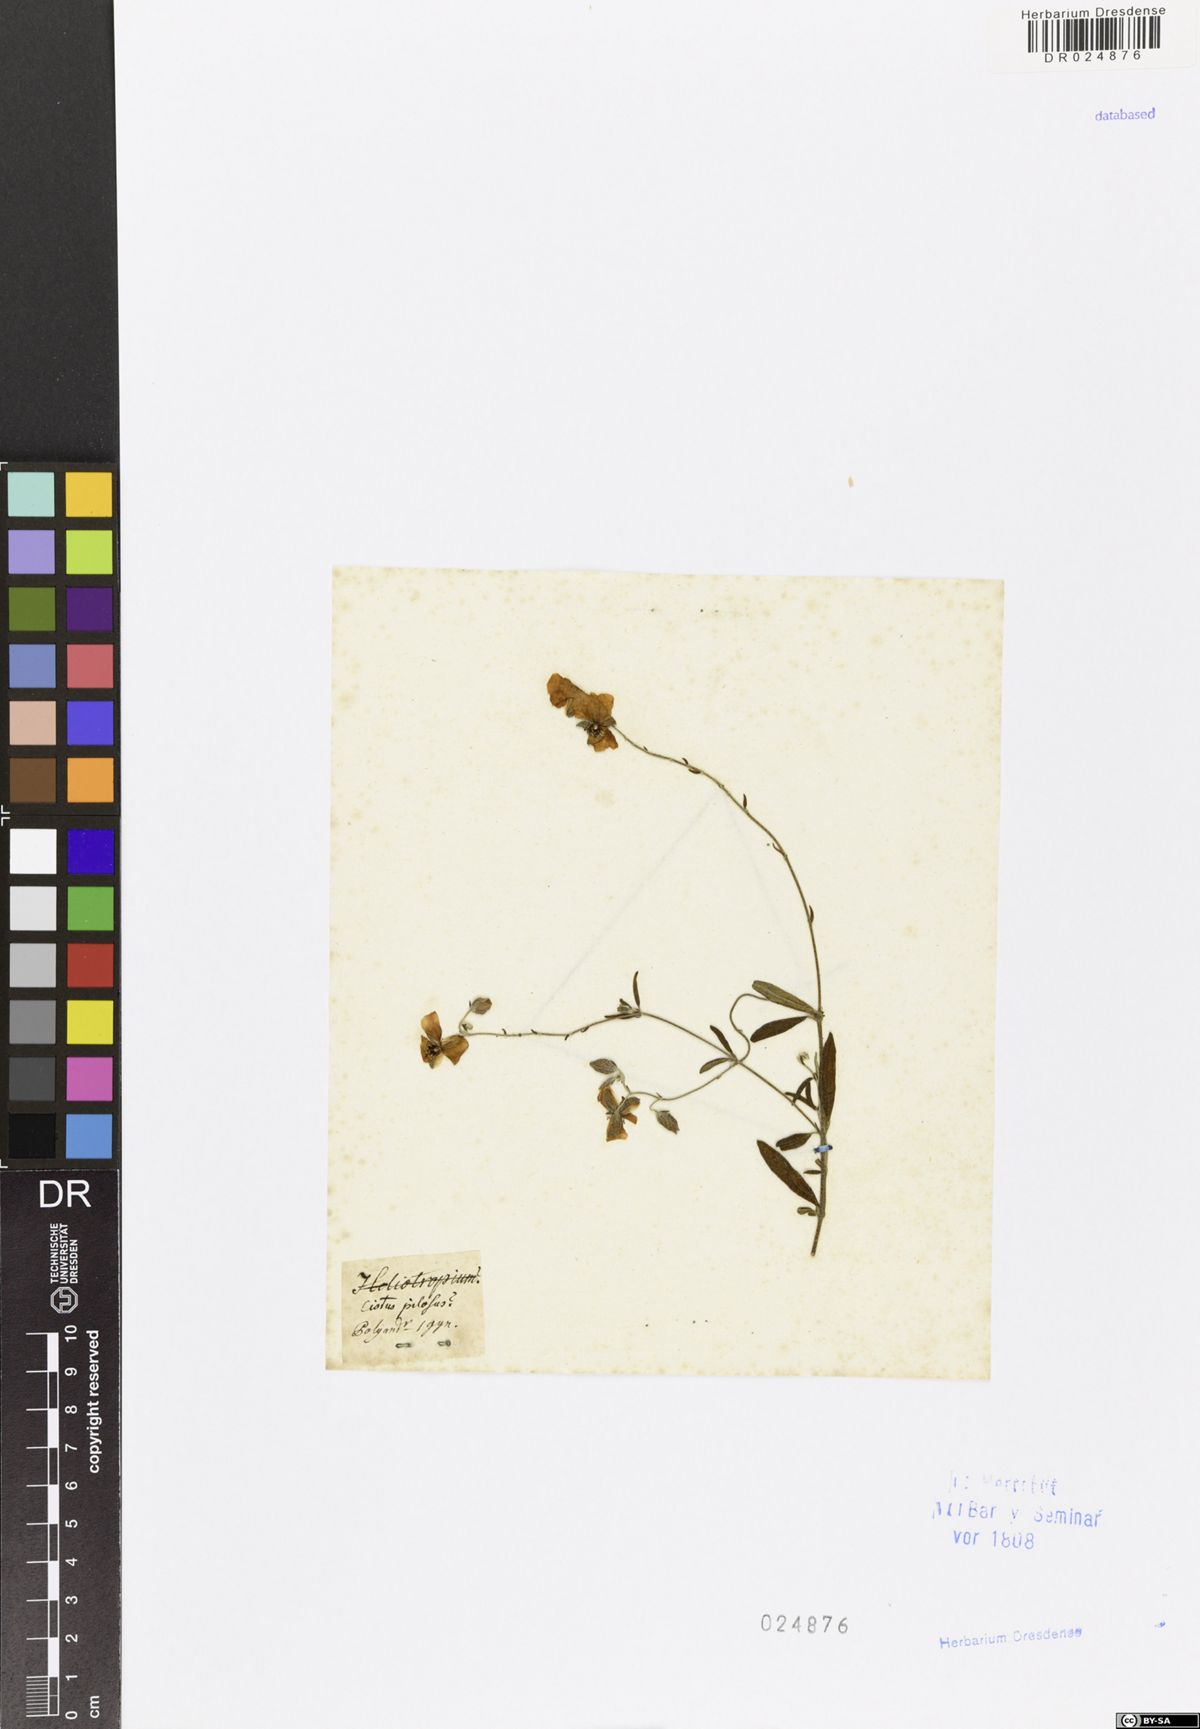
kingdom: Plantae
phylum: Tracheophyta
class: Magnoliopsida
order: Malvales
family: Cistaceae
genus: Helianthemum
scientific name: Helianthemum nummularium
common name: Common rock-rose
